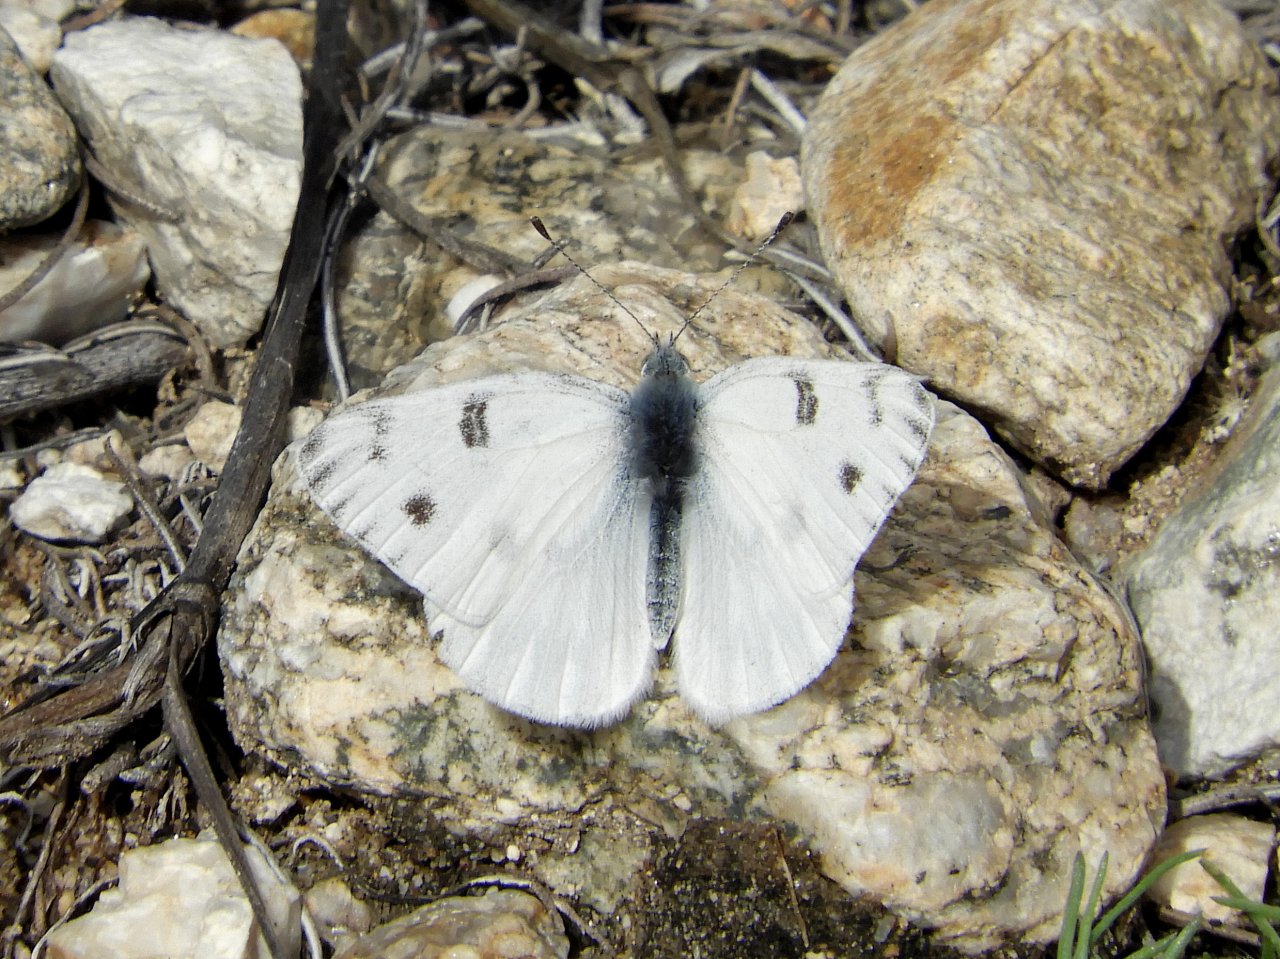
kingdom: Animalia
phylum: Arthropoda
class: Insecta
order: Lepidoptera
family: Pieridae
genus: Pontia
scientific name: Pontia protodice
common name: Checkered White
